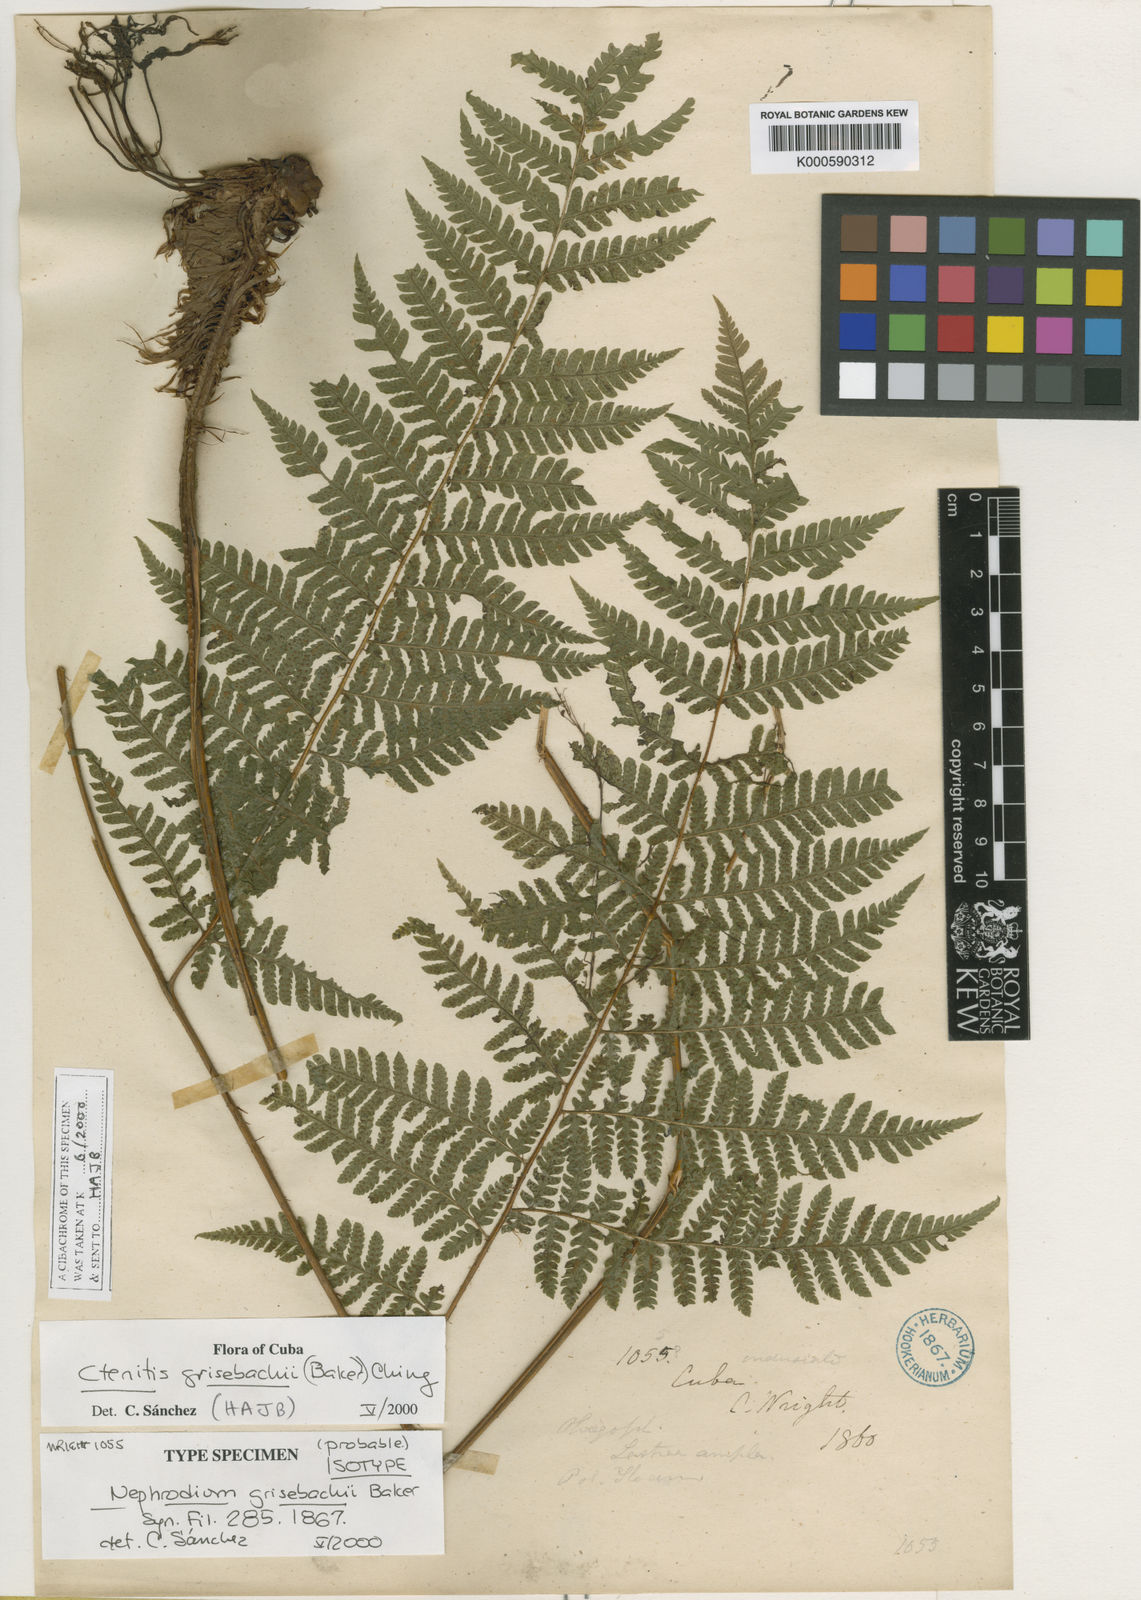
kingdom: Plantae
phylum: Tracheophyta
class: Polypodiopsida
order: Polypodiales
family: Dryopteridaceae
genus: Ctenitis
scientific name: Ctenitis grisebachii
